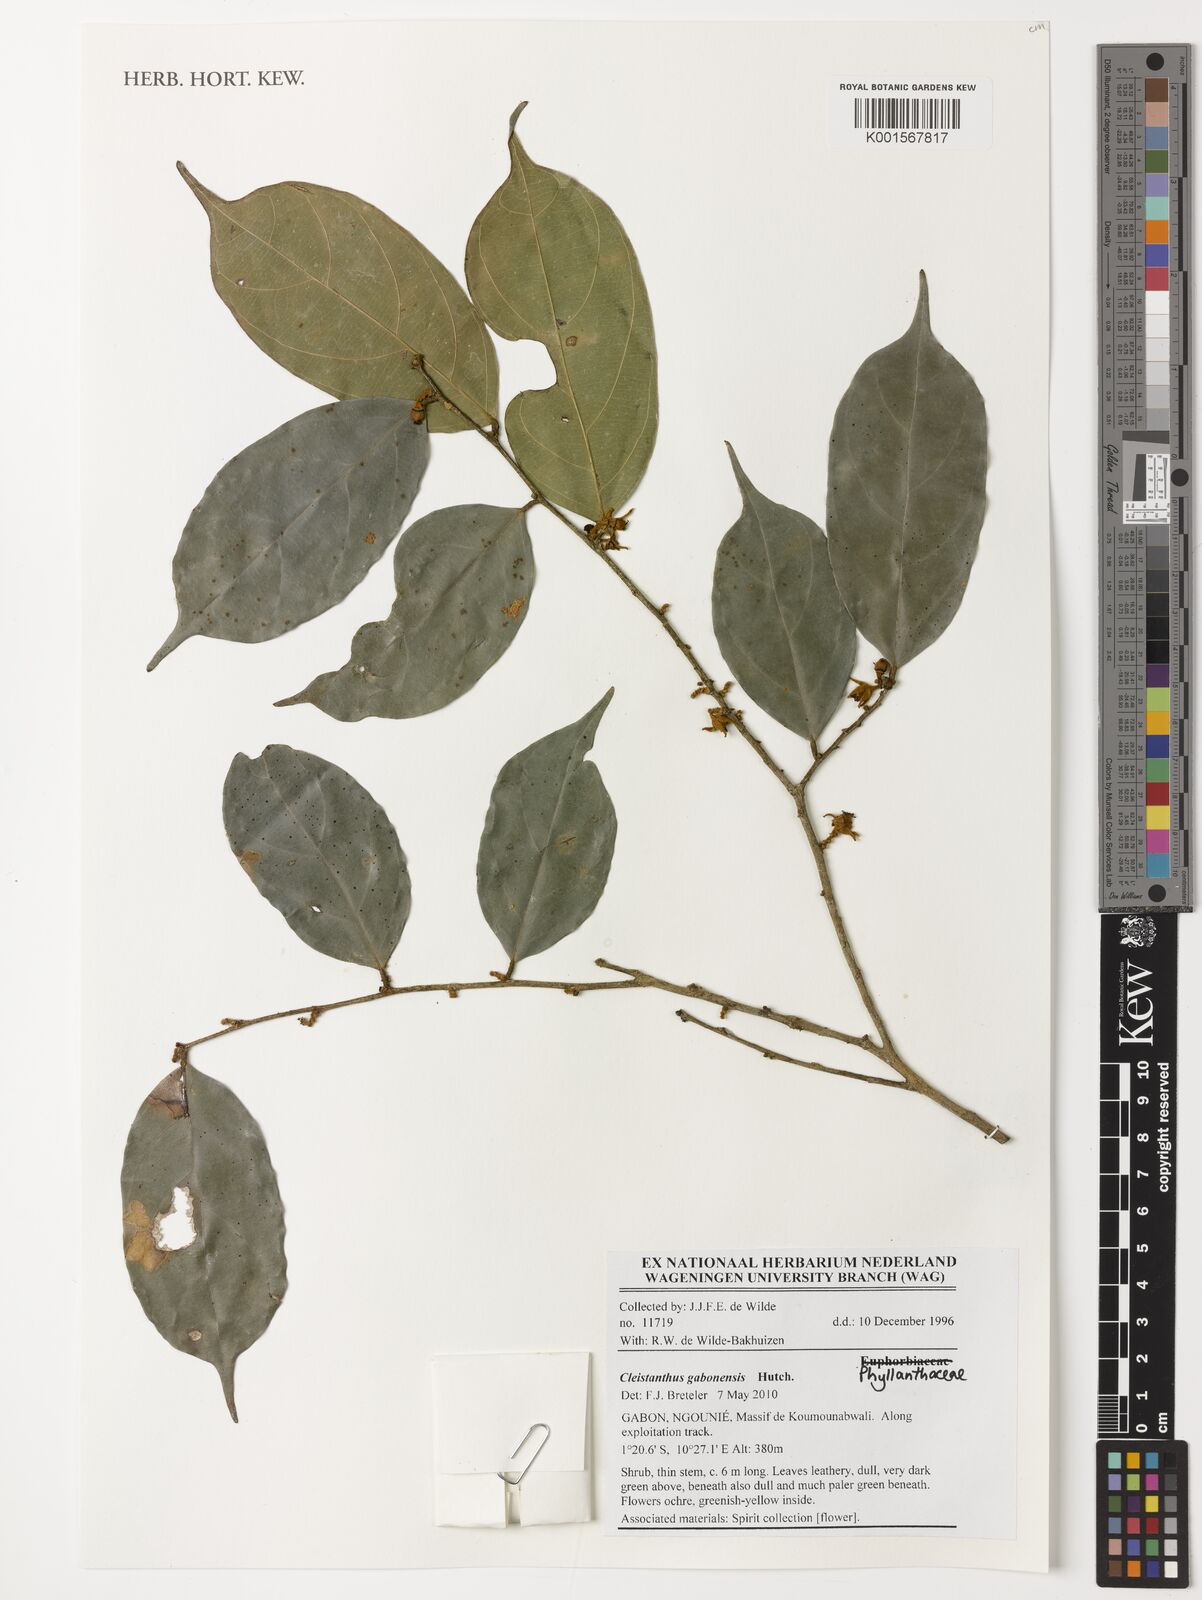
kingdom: Plantae
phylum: Tracheophyta
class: Magnoliopsida
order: Malpighiales
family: Phyllanthaceae
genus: Cleistanthus
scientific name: Cleistanthus gabonensis
